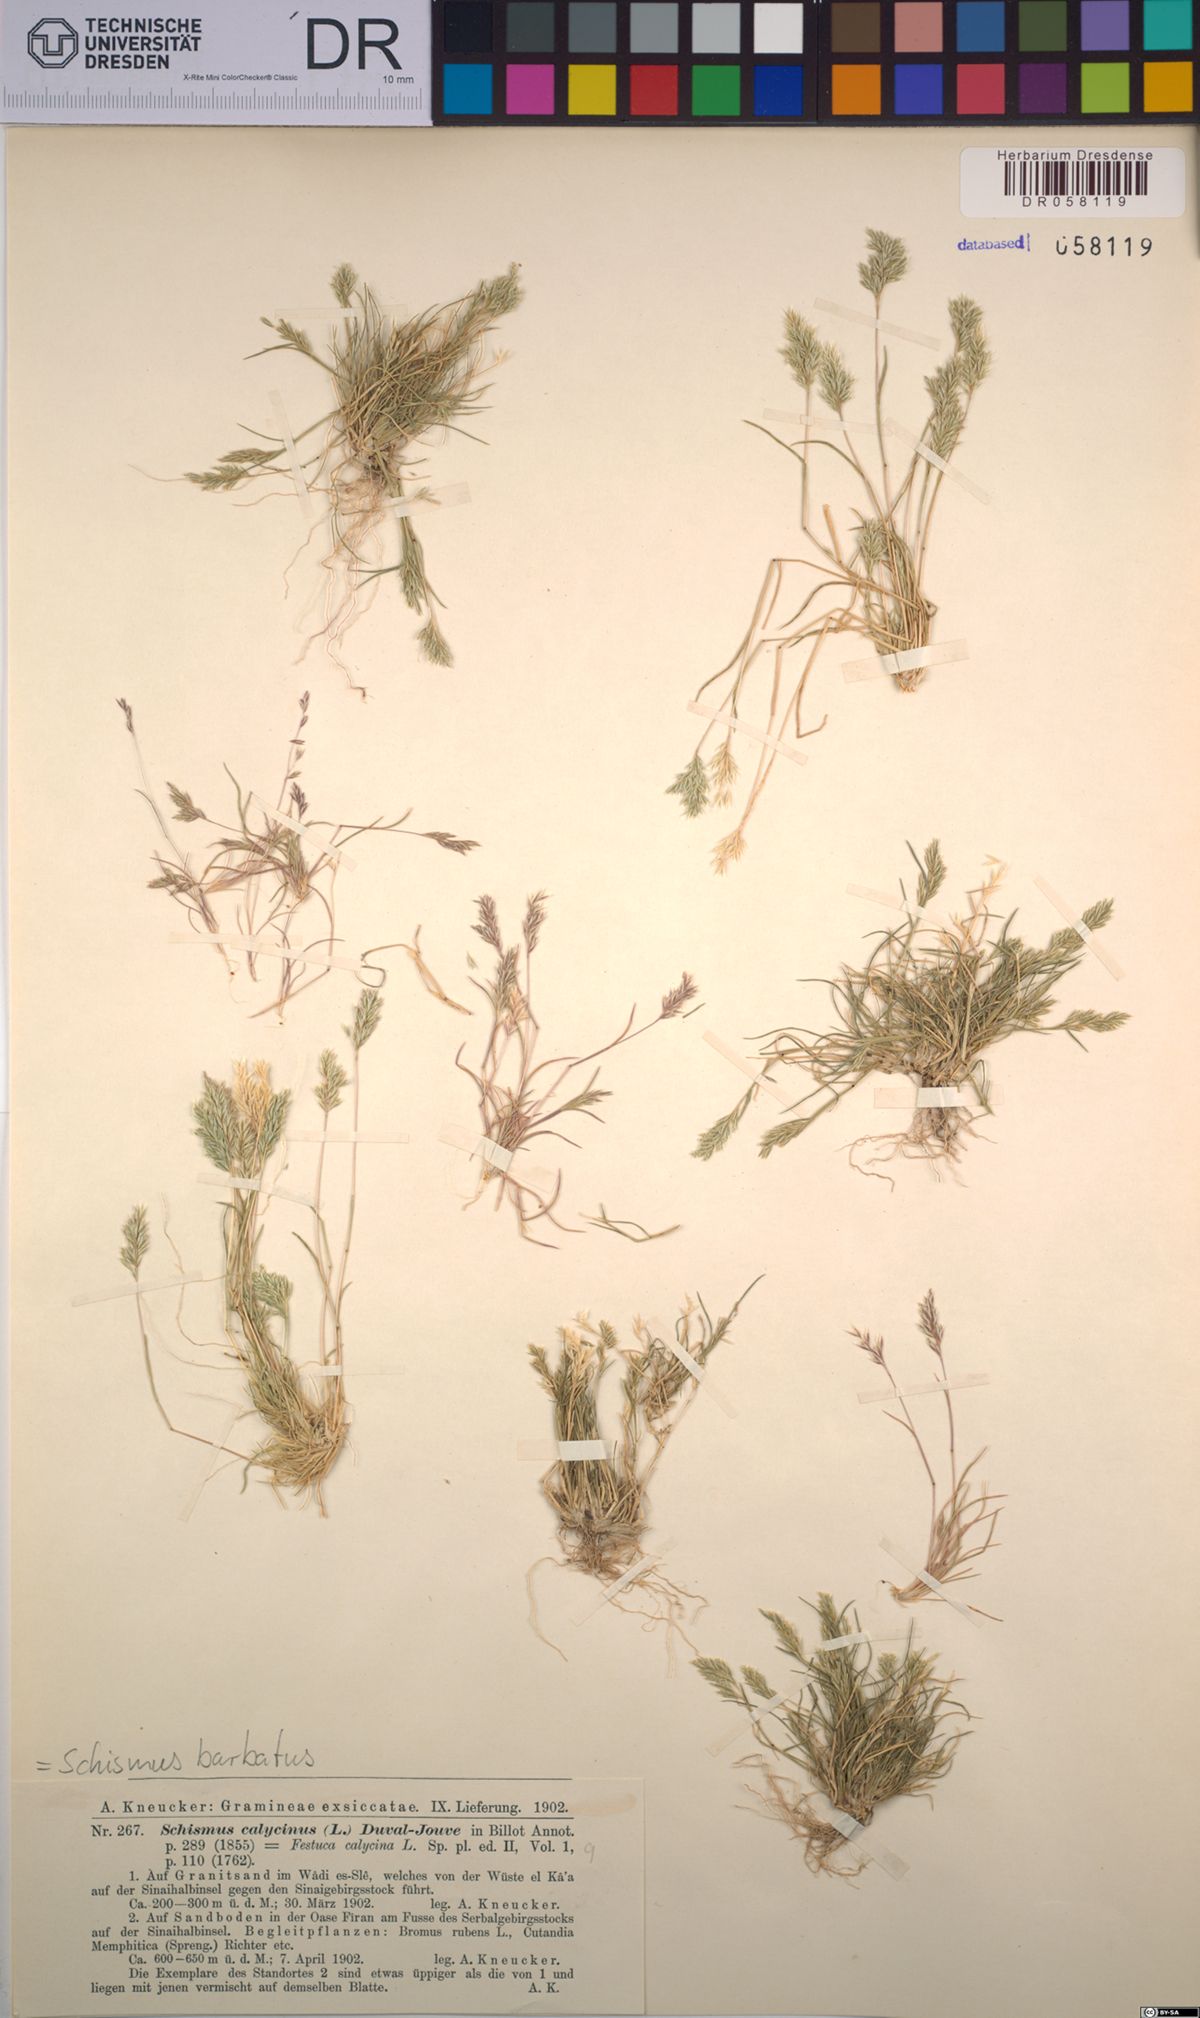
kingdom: Plantae
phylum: Tracheophyta
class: Liliopsida
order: Poales
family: Poaceae
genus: Schismus
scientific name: Schismus barbatus
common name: Kelch-grass
